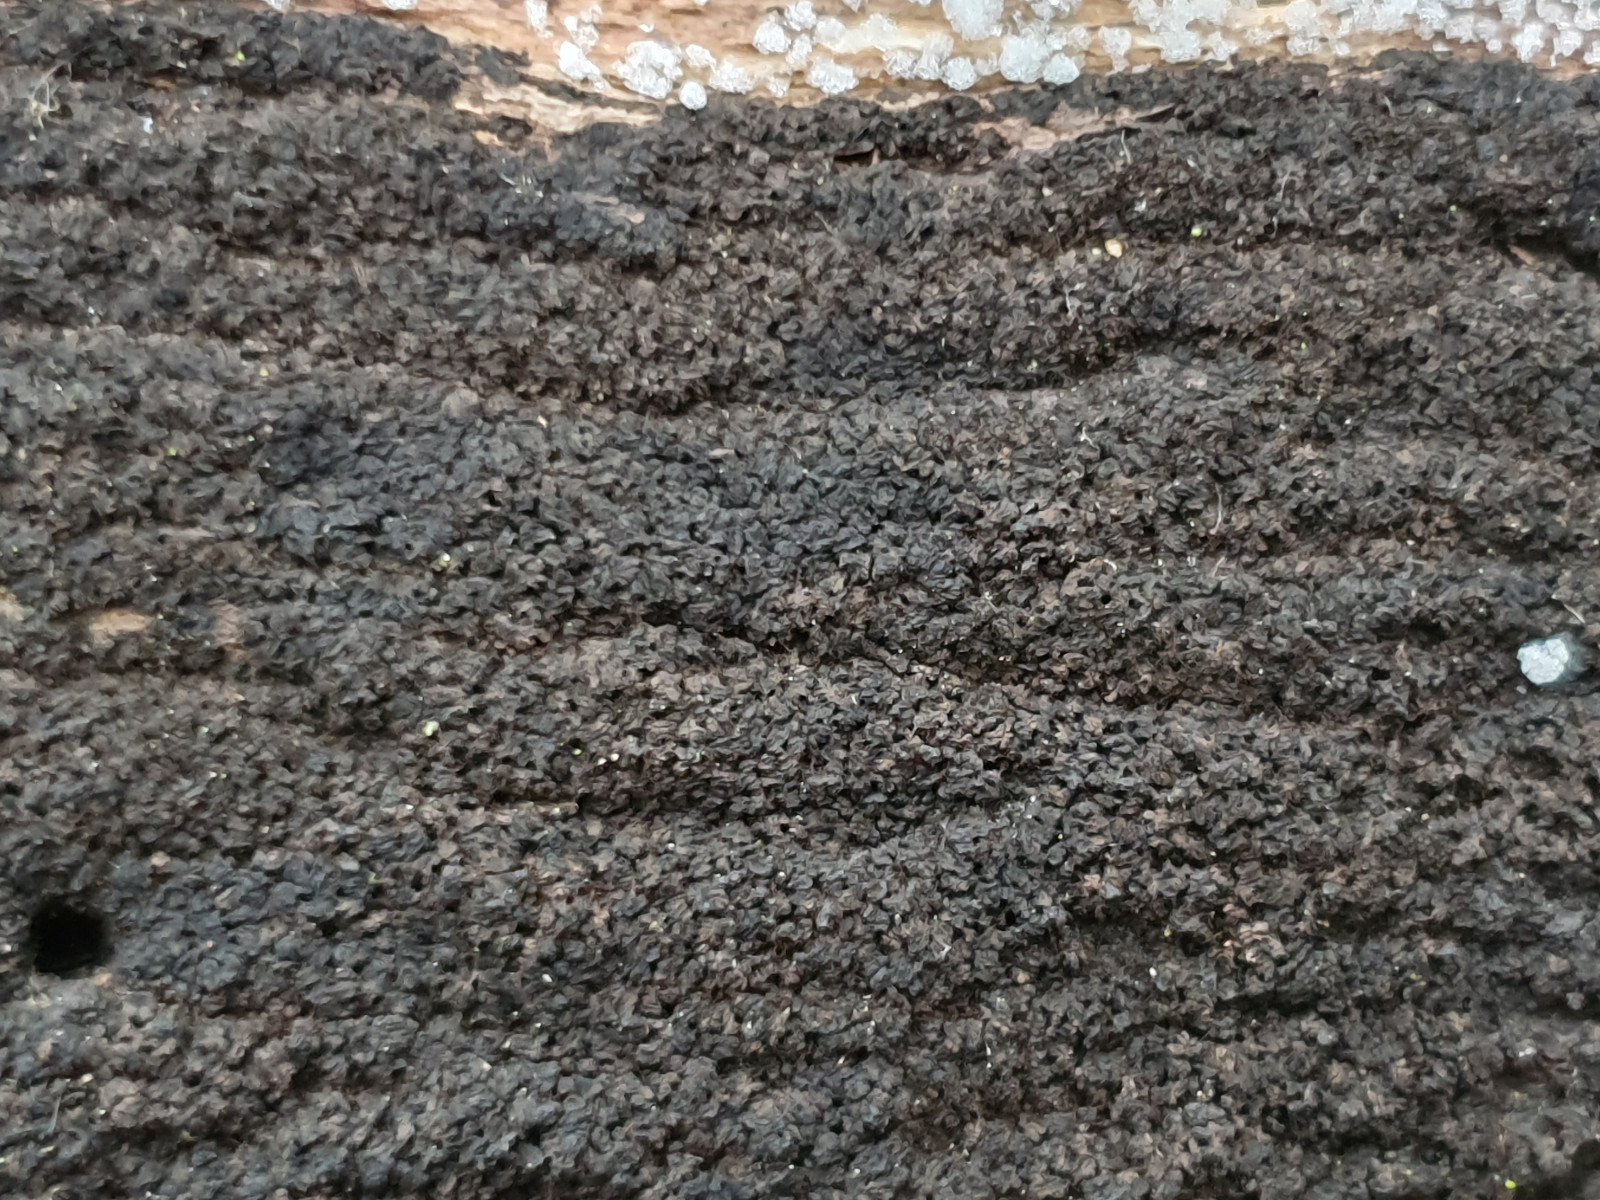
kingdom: Fungi
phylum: Ascomycota
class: Sordariomycetes
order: Xylariales
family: Diatrypaceae
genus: Eutypa
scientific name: Eutypa spinosa
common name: grov kulskorpe
